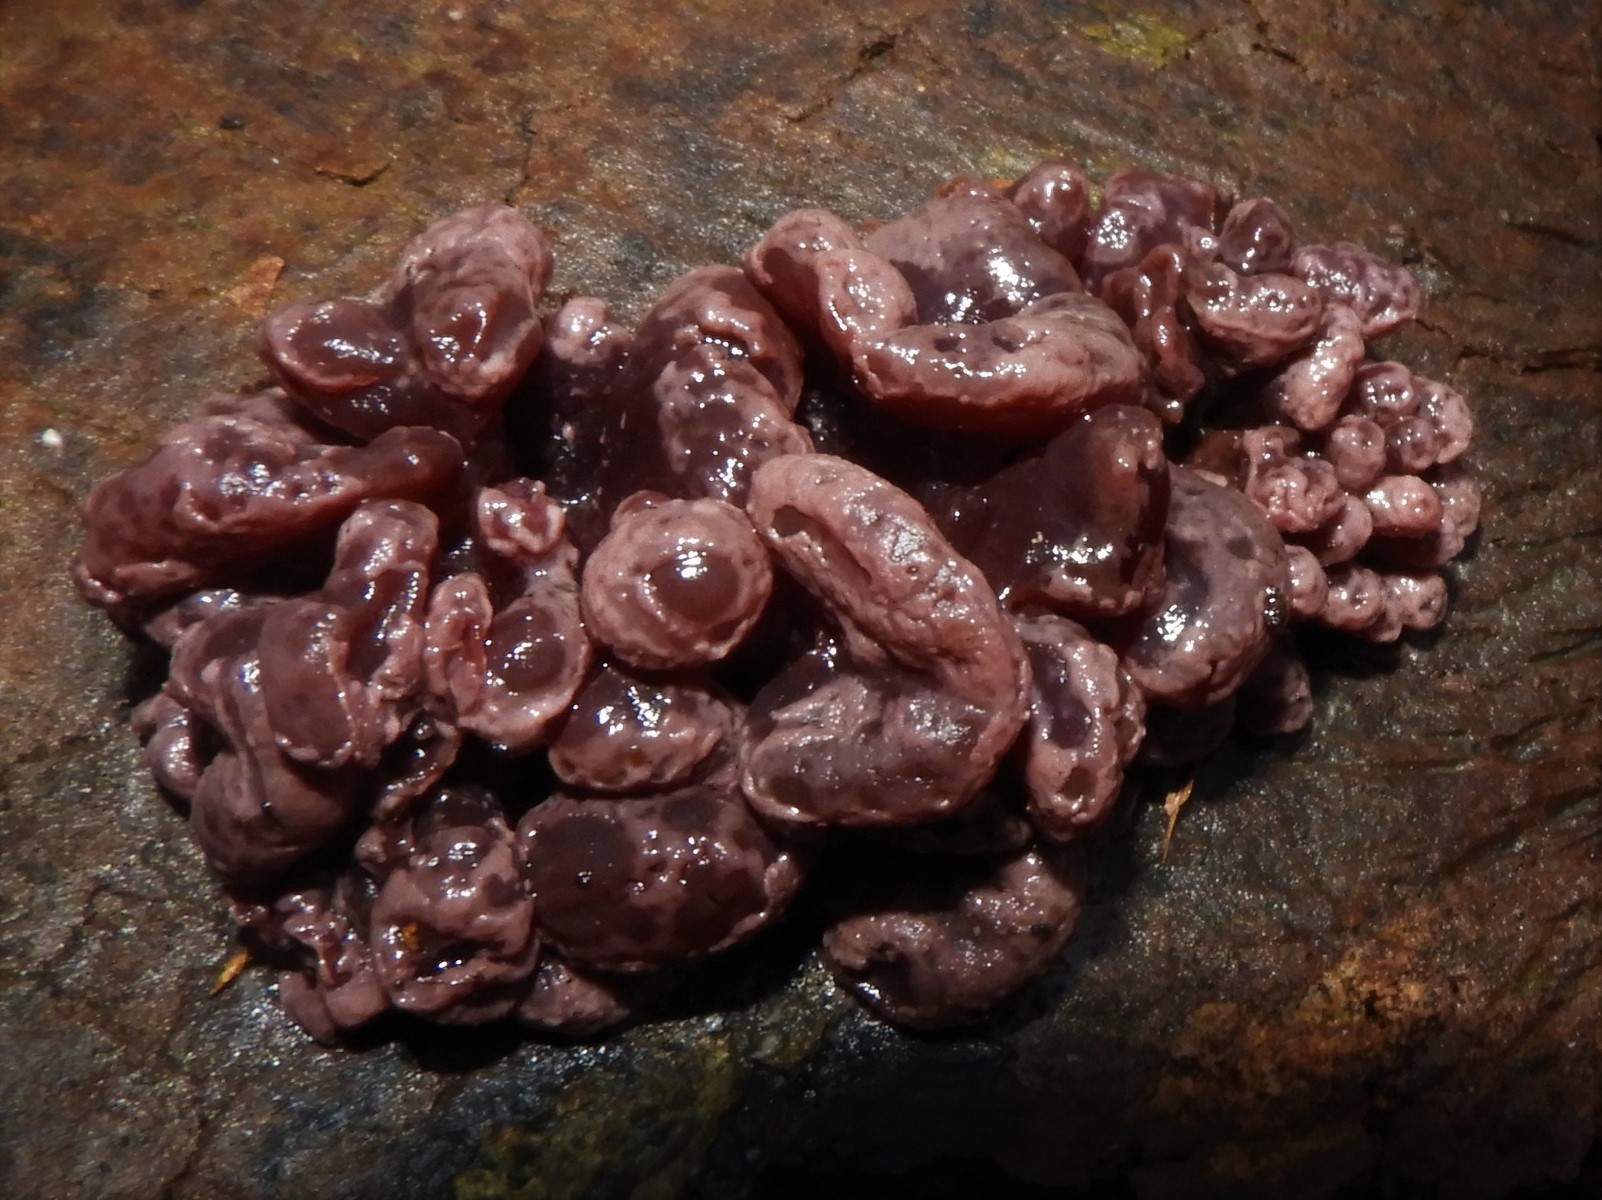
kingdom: Fungi
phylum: Ascomycota
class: Leotiomycetes
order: Helotiales
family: Gelatinodiscaceae
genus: Ascocoryne
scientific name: Ascocoryne sarcoides
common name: rødlilla sejskive
